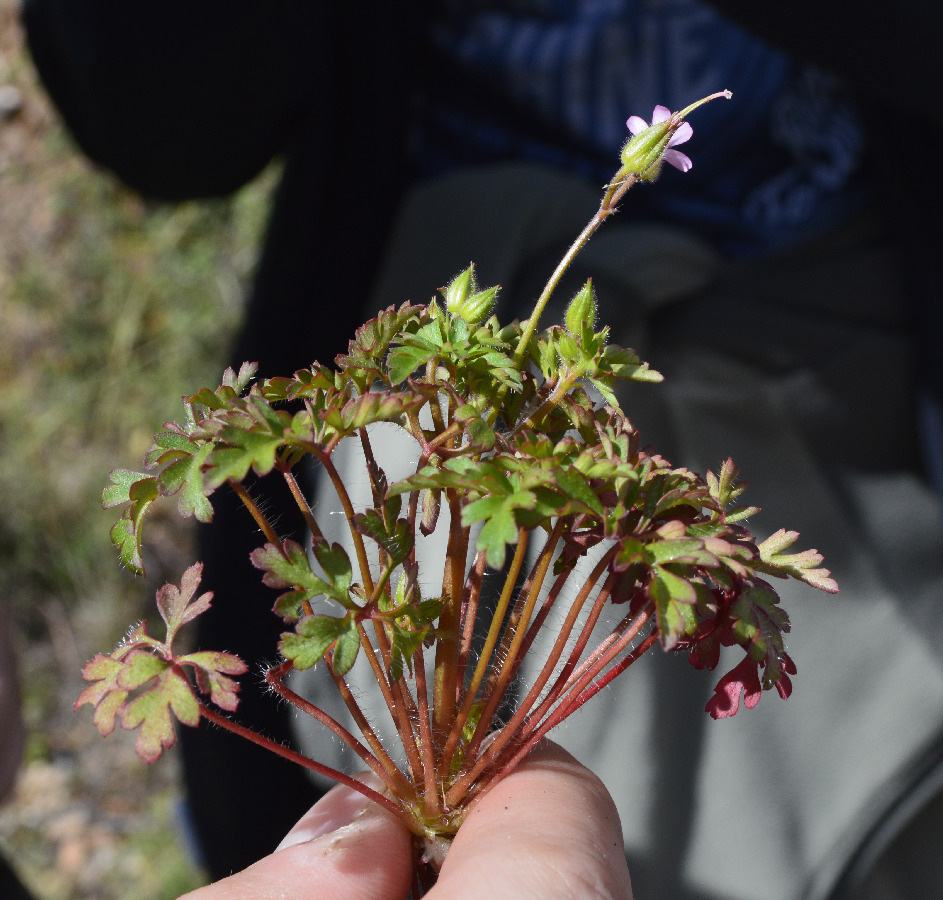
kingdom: Plantae
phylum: Tracheophyta
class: Magnoliopsida
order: Geraniales
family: Geraniaceae
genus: Geranium
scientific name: Geranium purpureum
